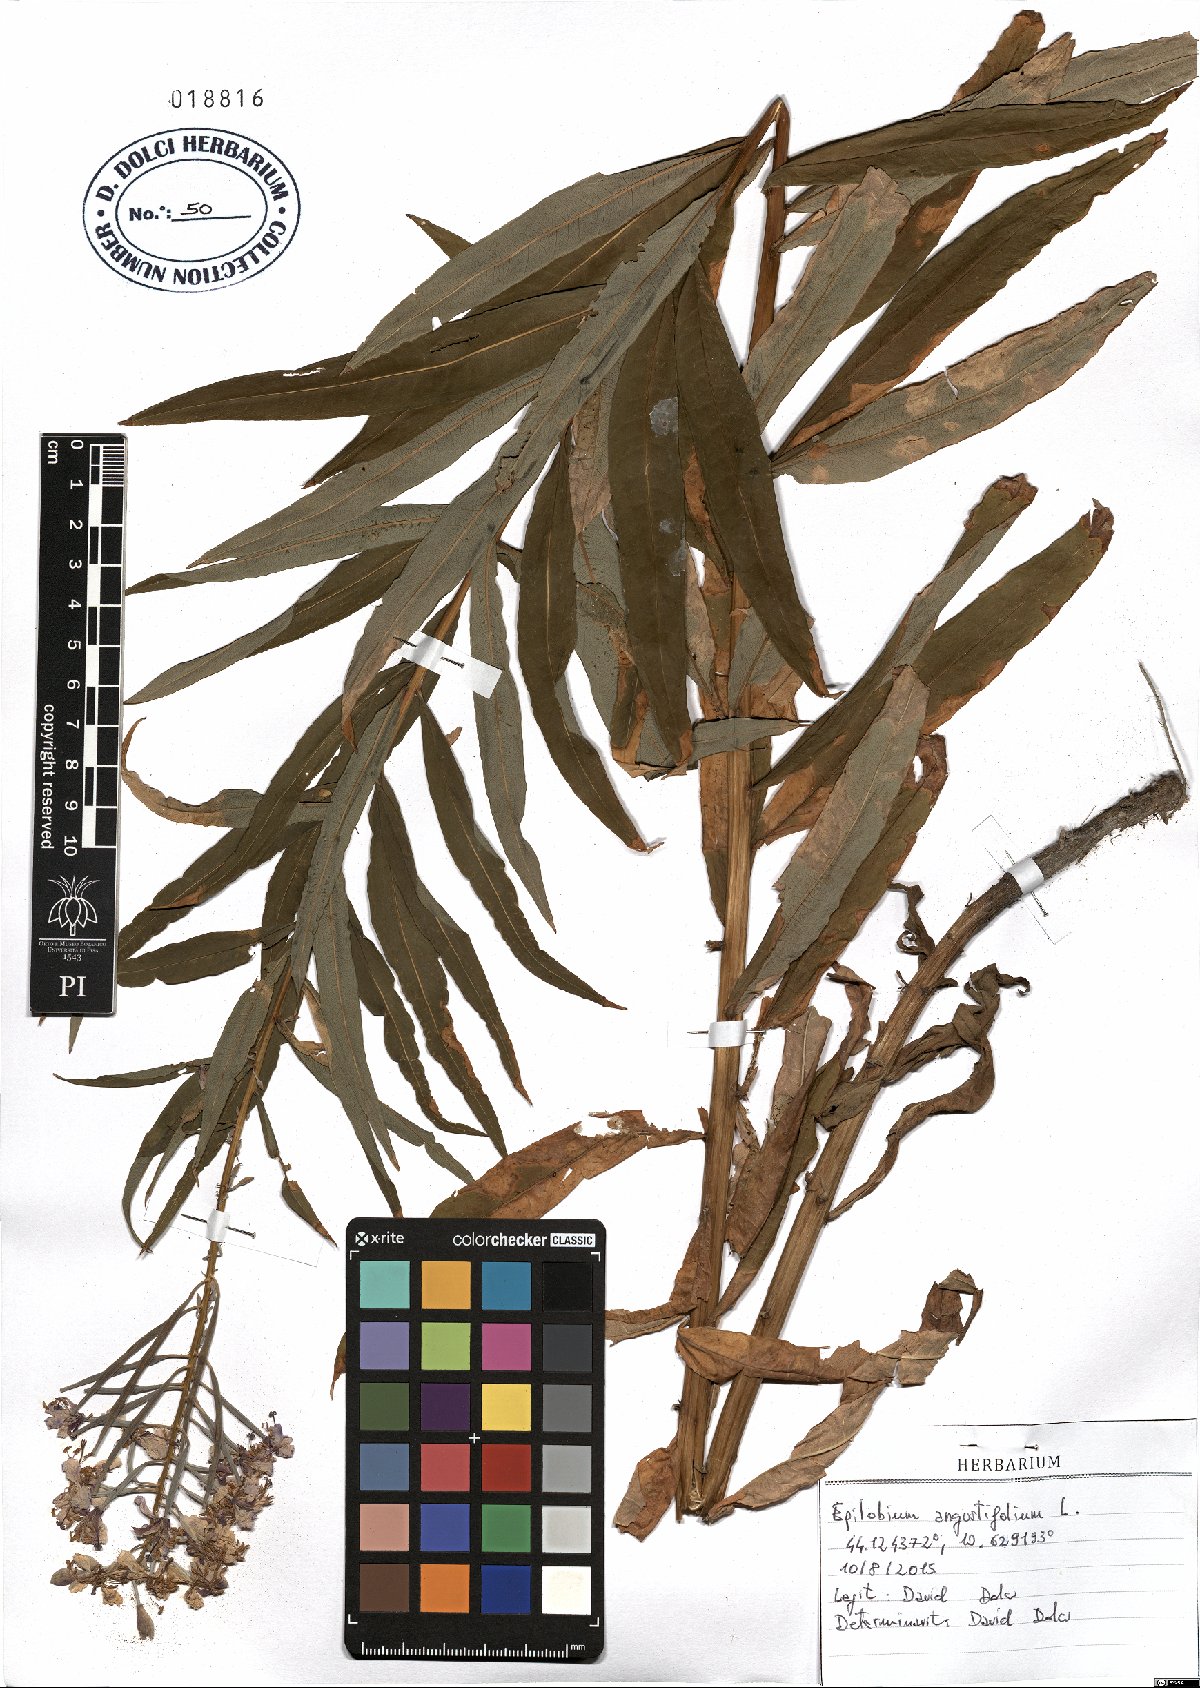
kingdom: Plantae
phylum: Tracheophyta
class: Magnoliopsida
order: Myrtales
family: Onagraceae
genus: Chamaenerion
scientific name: Chamaenerion angustifolium
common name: Fireweed
